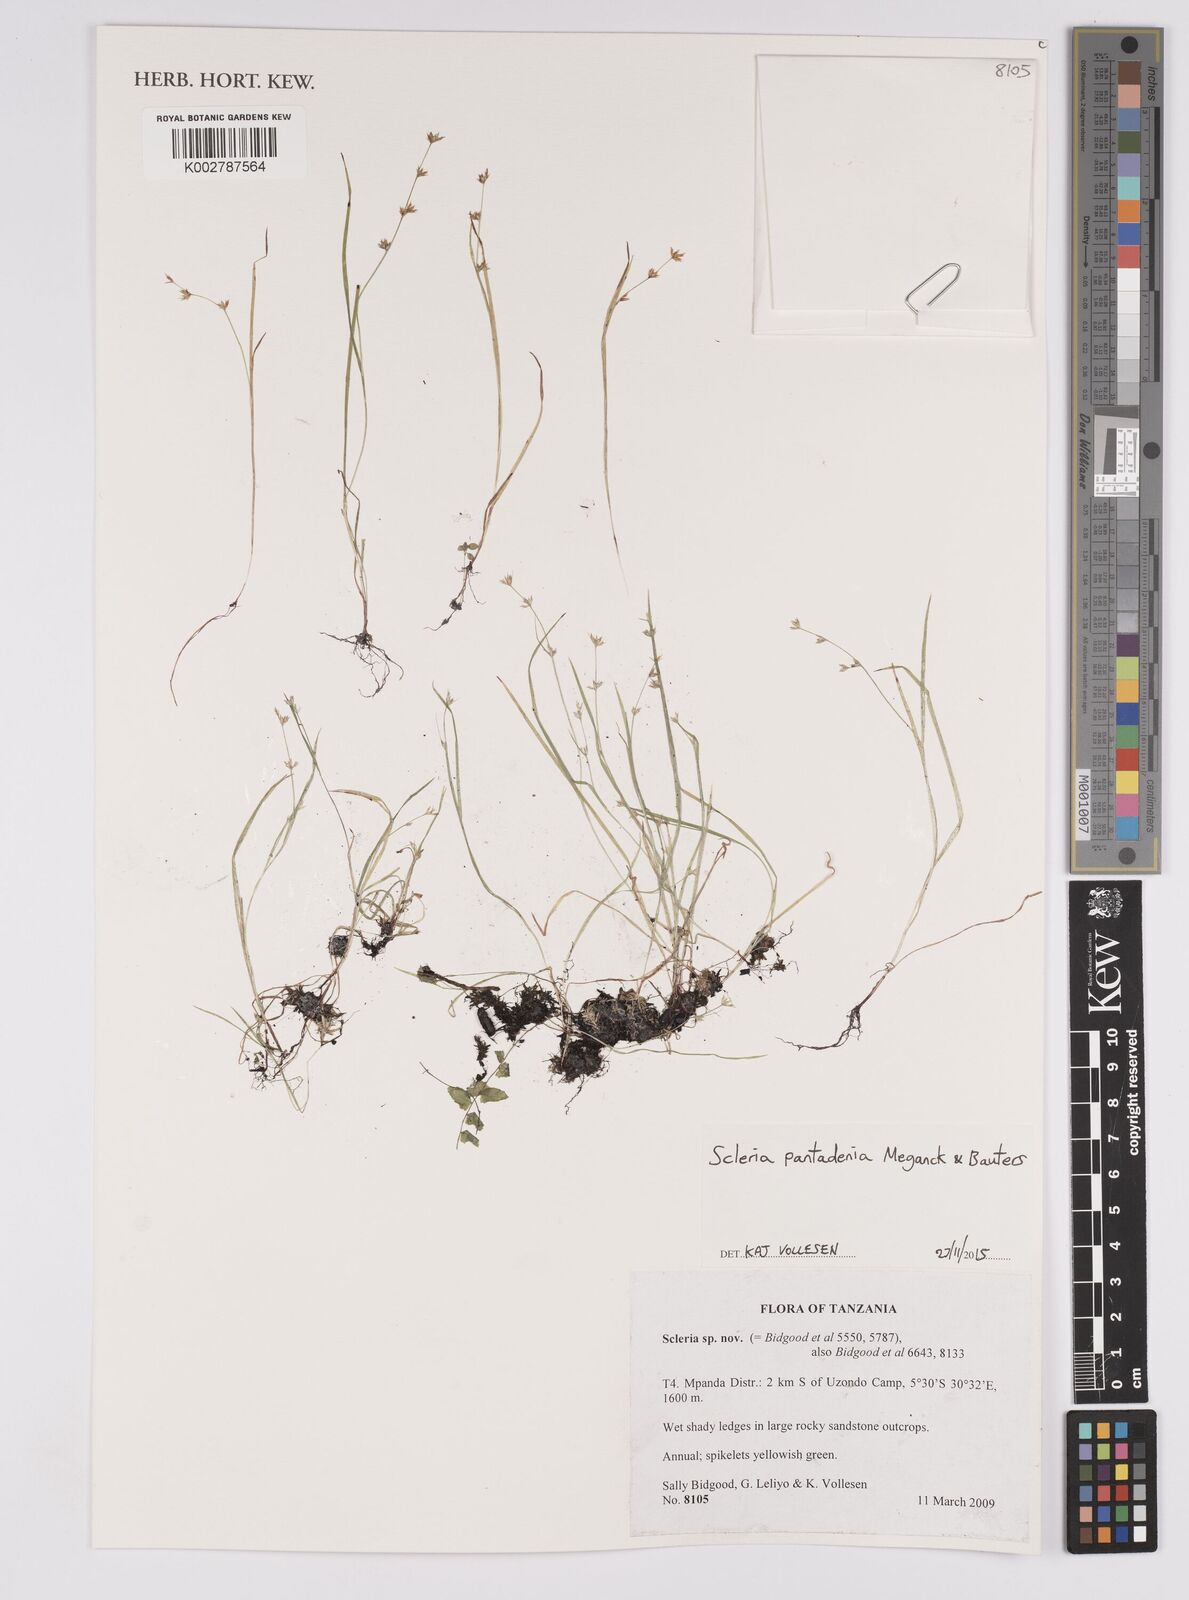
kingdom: Plantae
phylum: Tracheophyta
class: Liliopsida
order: Poales
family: Cyperaceae
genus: Scleria
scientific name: Scleria pantadenia
